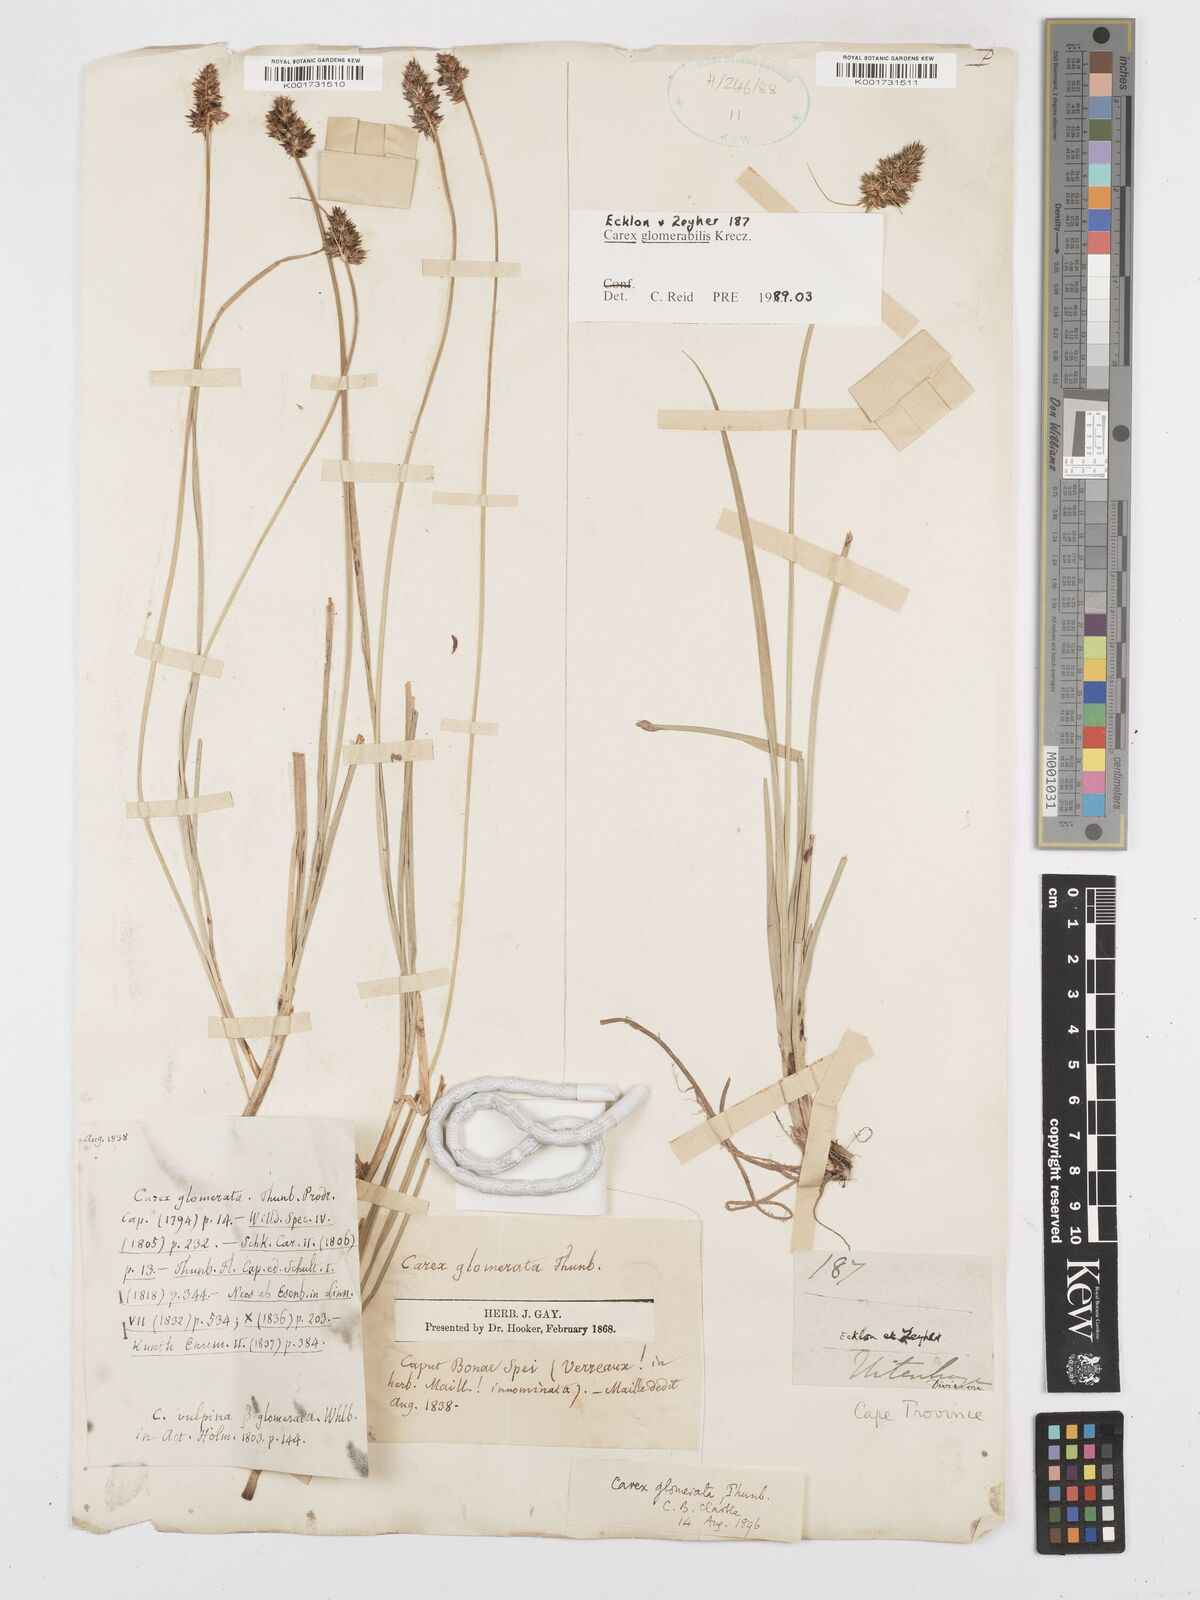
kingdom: Plantae
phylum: Tracheophyta
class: Liliopsida
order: Poales
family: Cyperaceae
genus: Carex
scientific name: Carex glomerata
